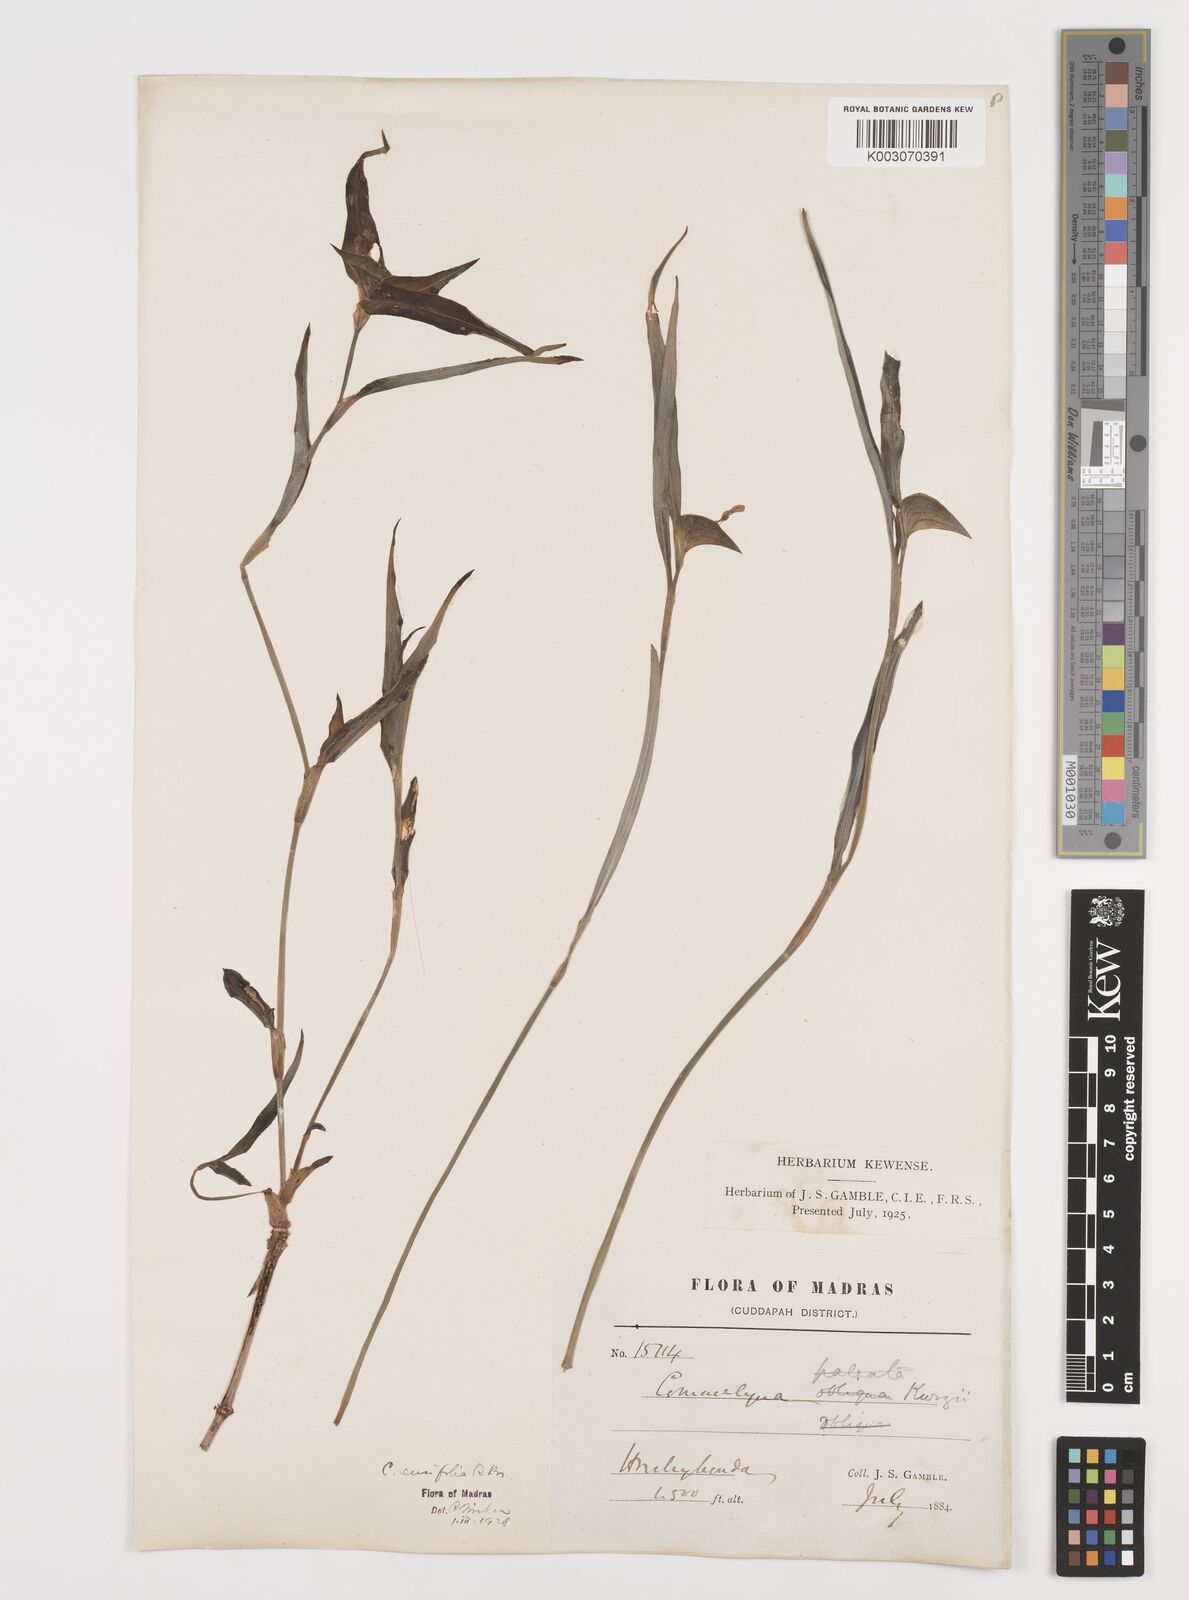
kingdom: Plantae
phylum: Tracheophyta
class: Liliopsida
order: Commelinales
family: Commelinaceae
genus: Commelina
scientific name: Commelina ensifolia
